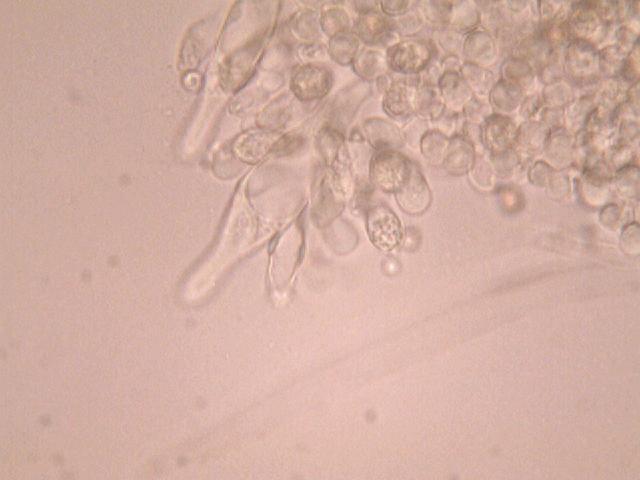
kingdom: Fungi
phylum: Basidiomycota
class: Agaricomycetes
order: Agaricales
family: Pluteaceae
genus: Pluteus
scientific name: Pluteus
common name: pudret skærmhat
